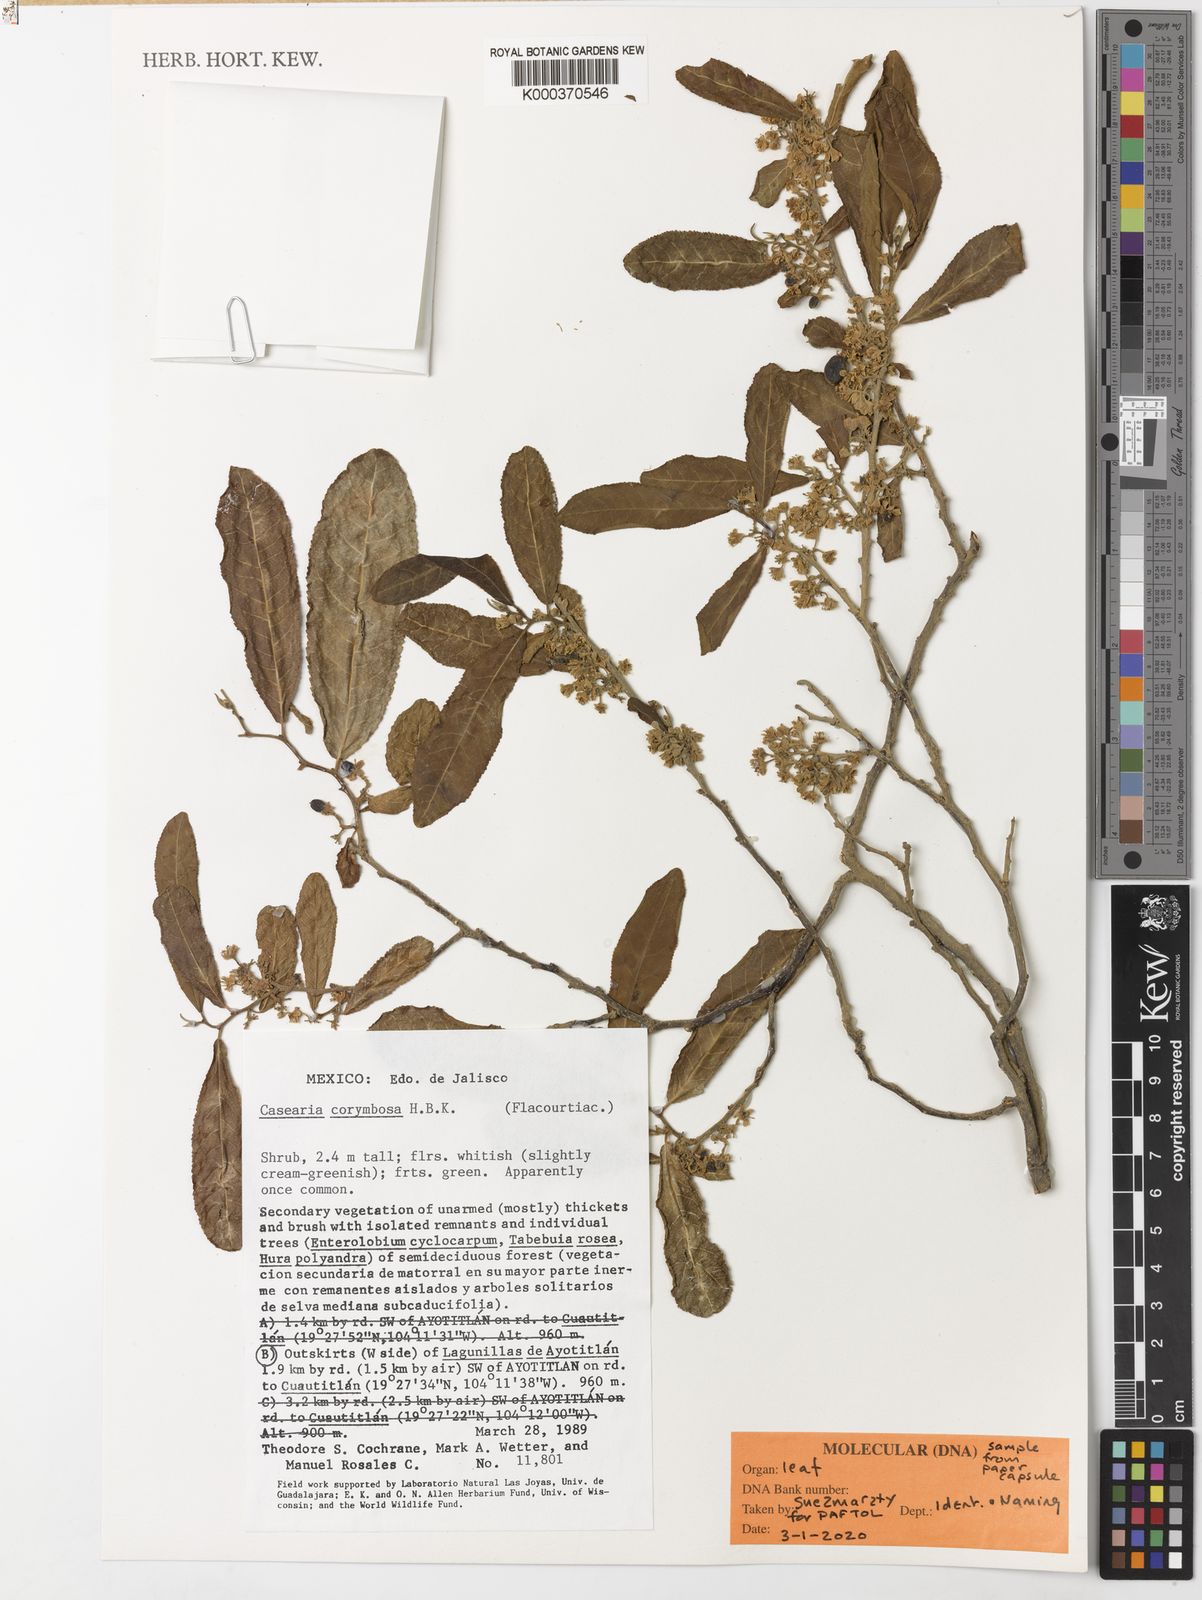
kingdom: Plantae
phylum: Tracheophyta
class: Magnoliopsida
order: Malpighiales
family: Salicaceae
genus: Casearia
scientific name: Casearia corymbosa
